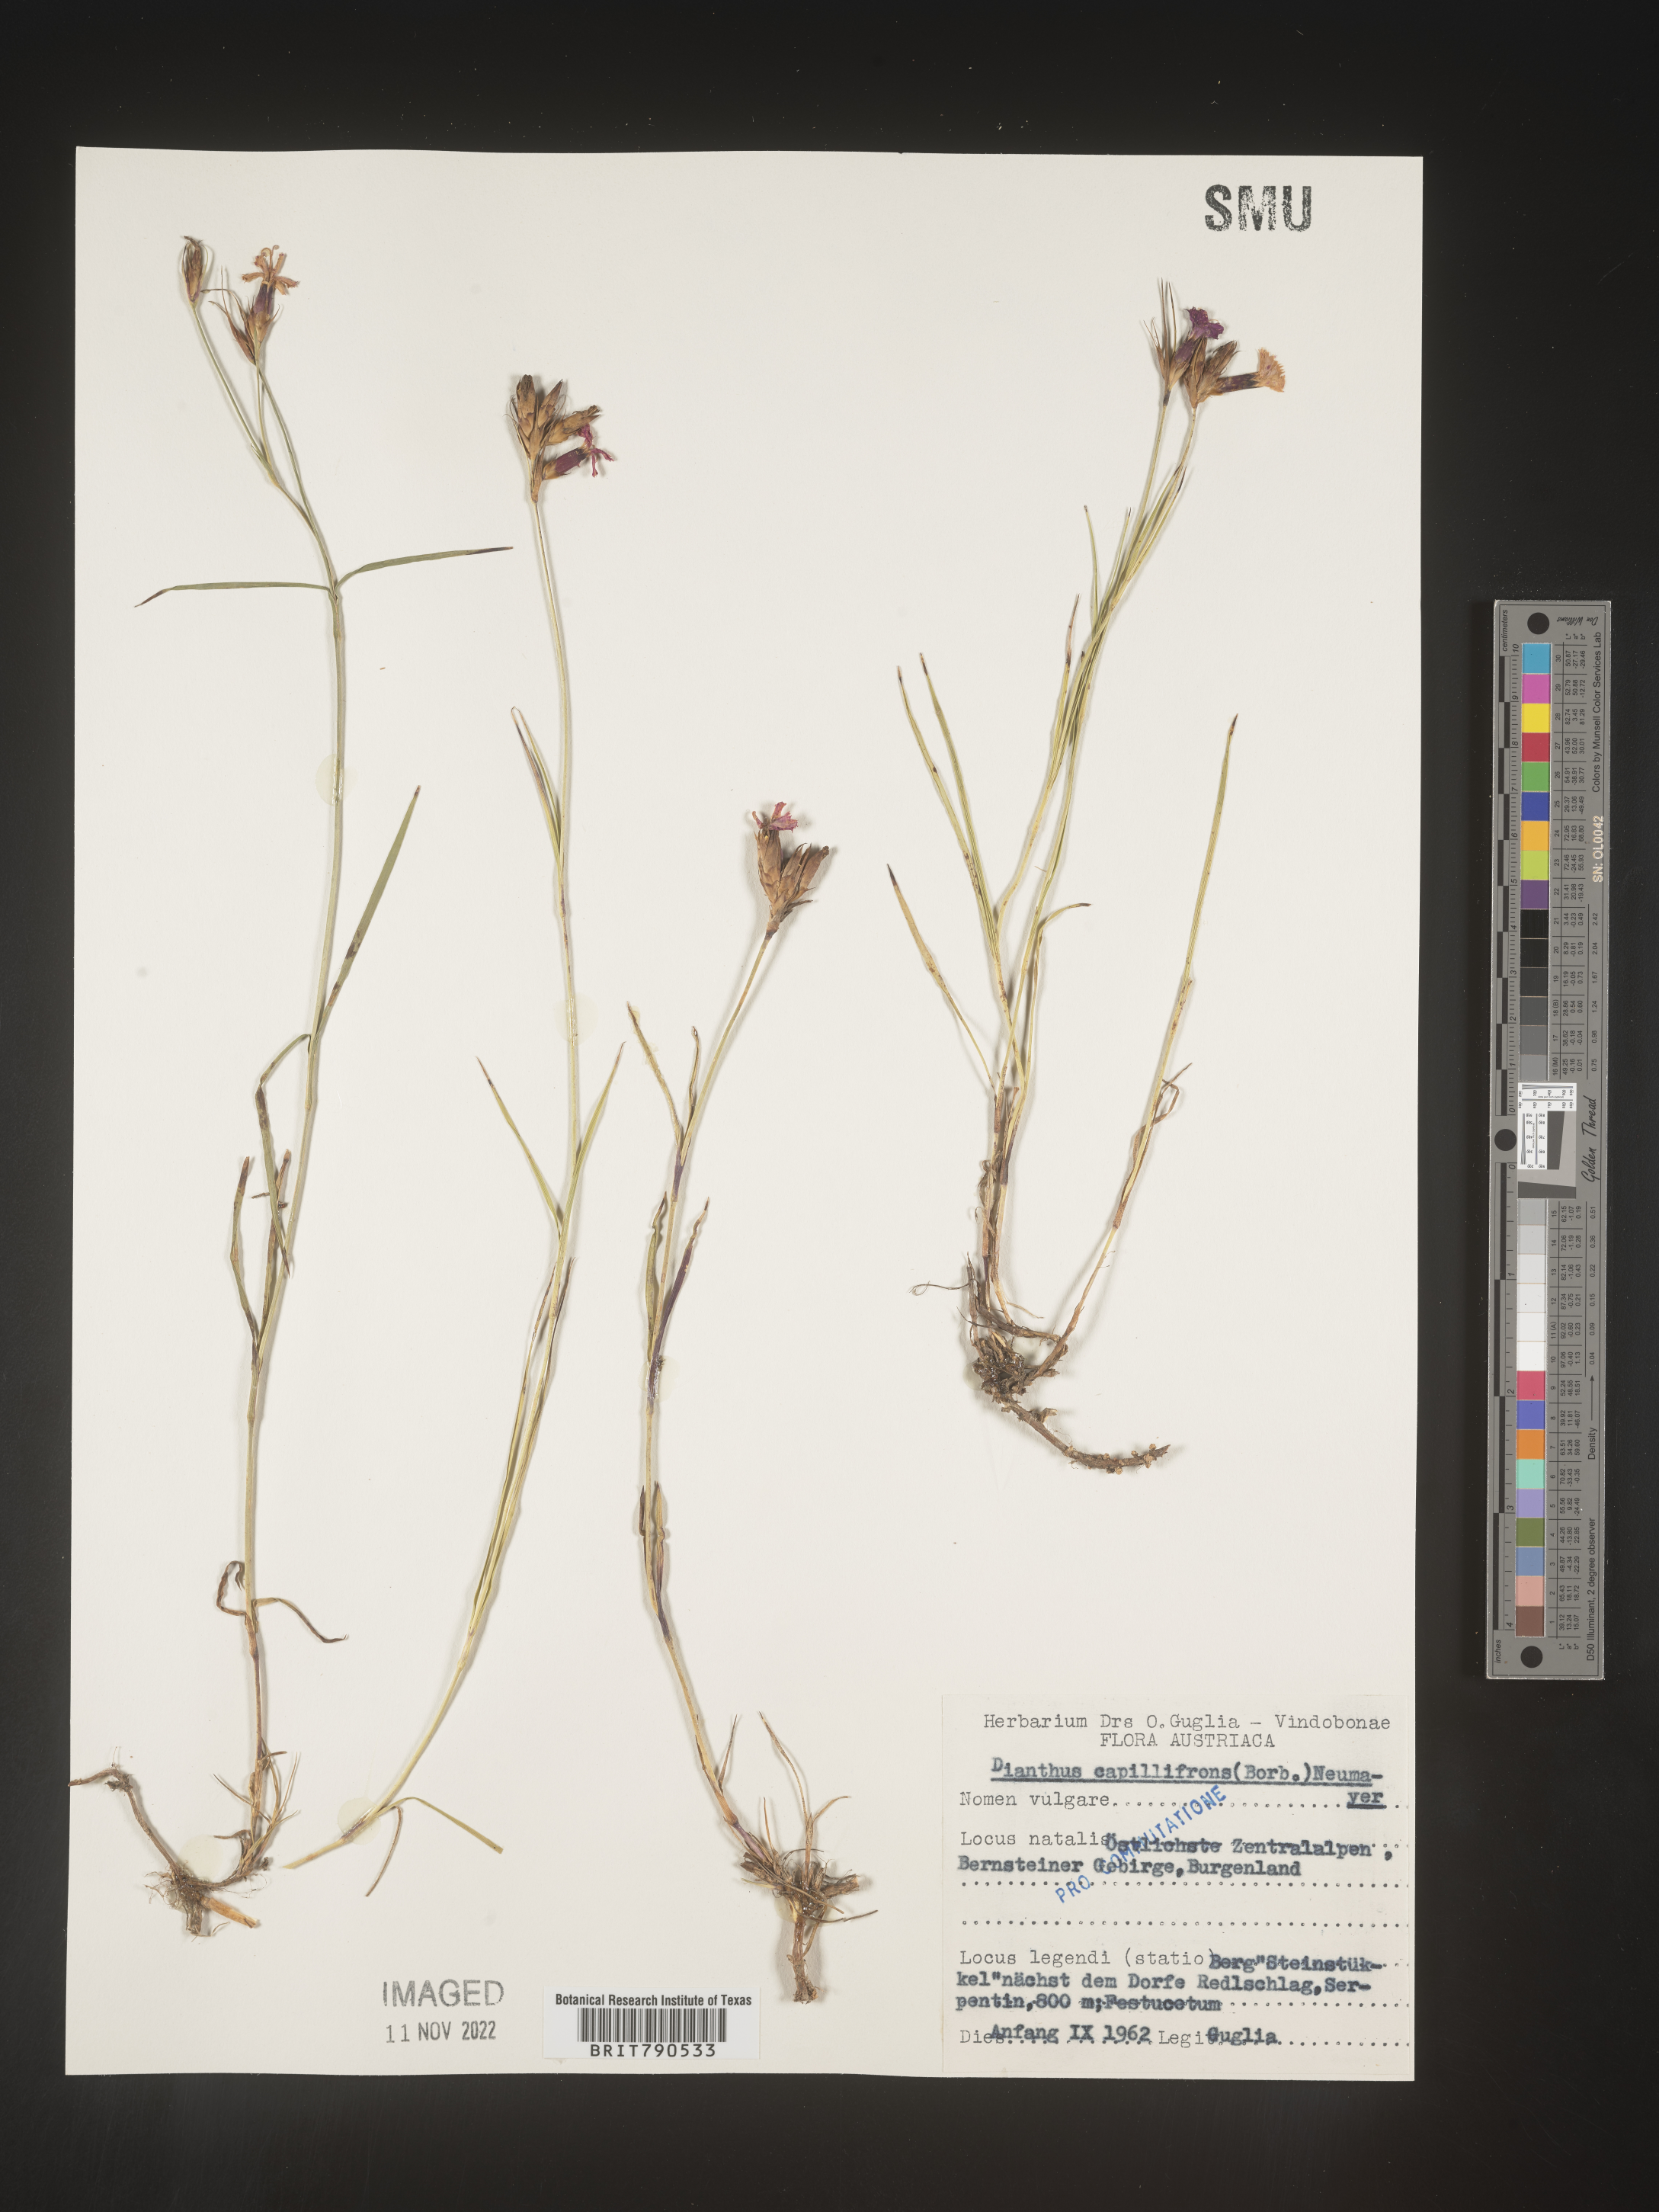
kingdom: Plantae
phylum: Tracheophyta
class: Magnoliopsida
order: Caryophyllales
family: Caryophyllaceae
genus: Dianthus
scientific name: Dianthus
